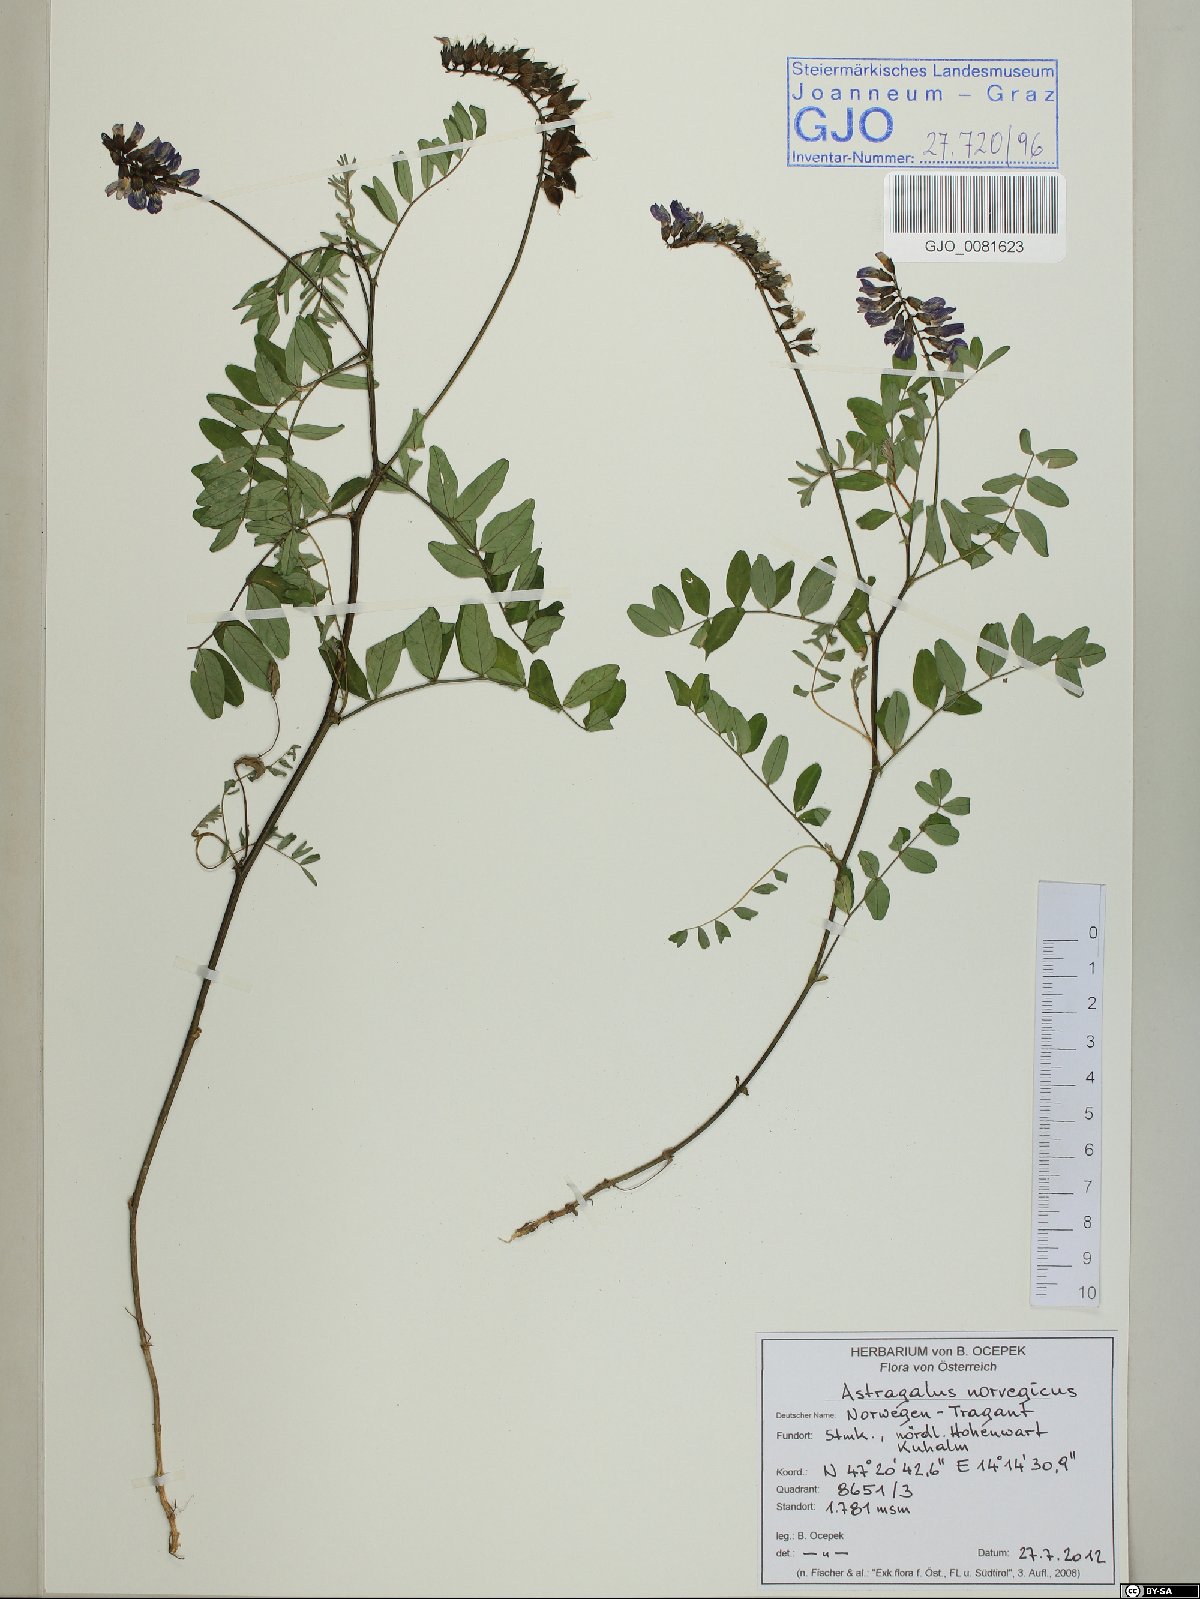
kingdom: Plantae
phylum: Tracheophyta
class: Magnoliopsida
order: Fabales
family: Fabaceae
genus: Astragalus
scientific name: Astragalus norvegicus
